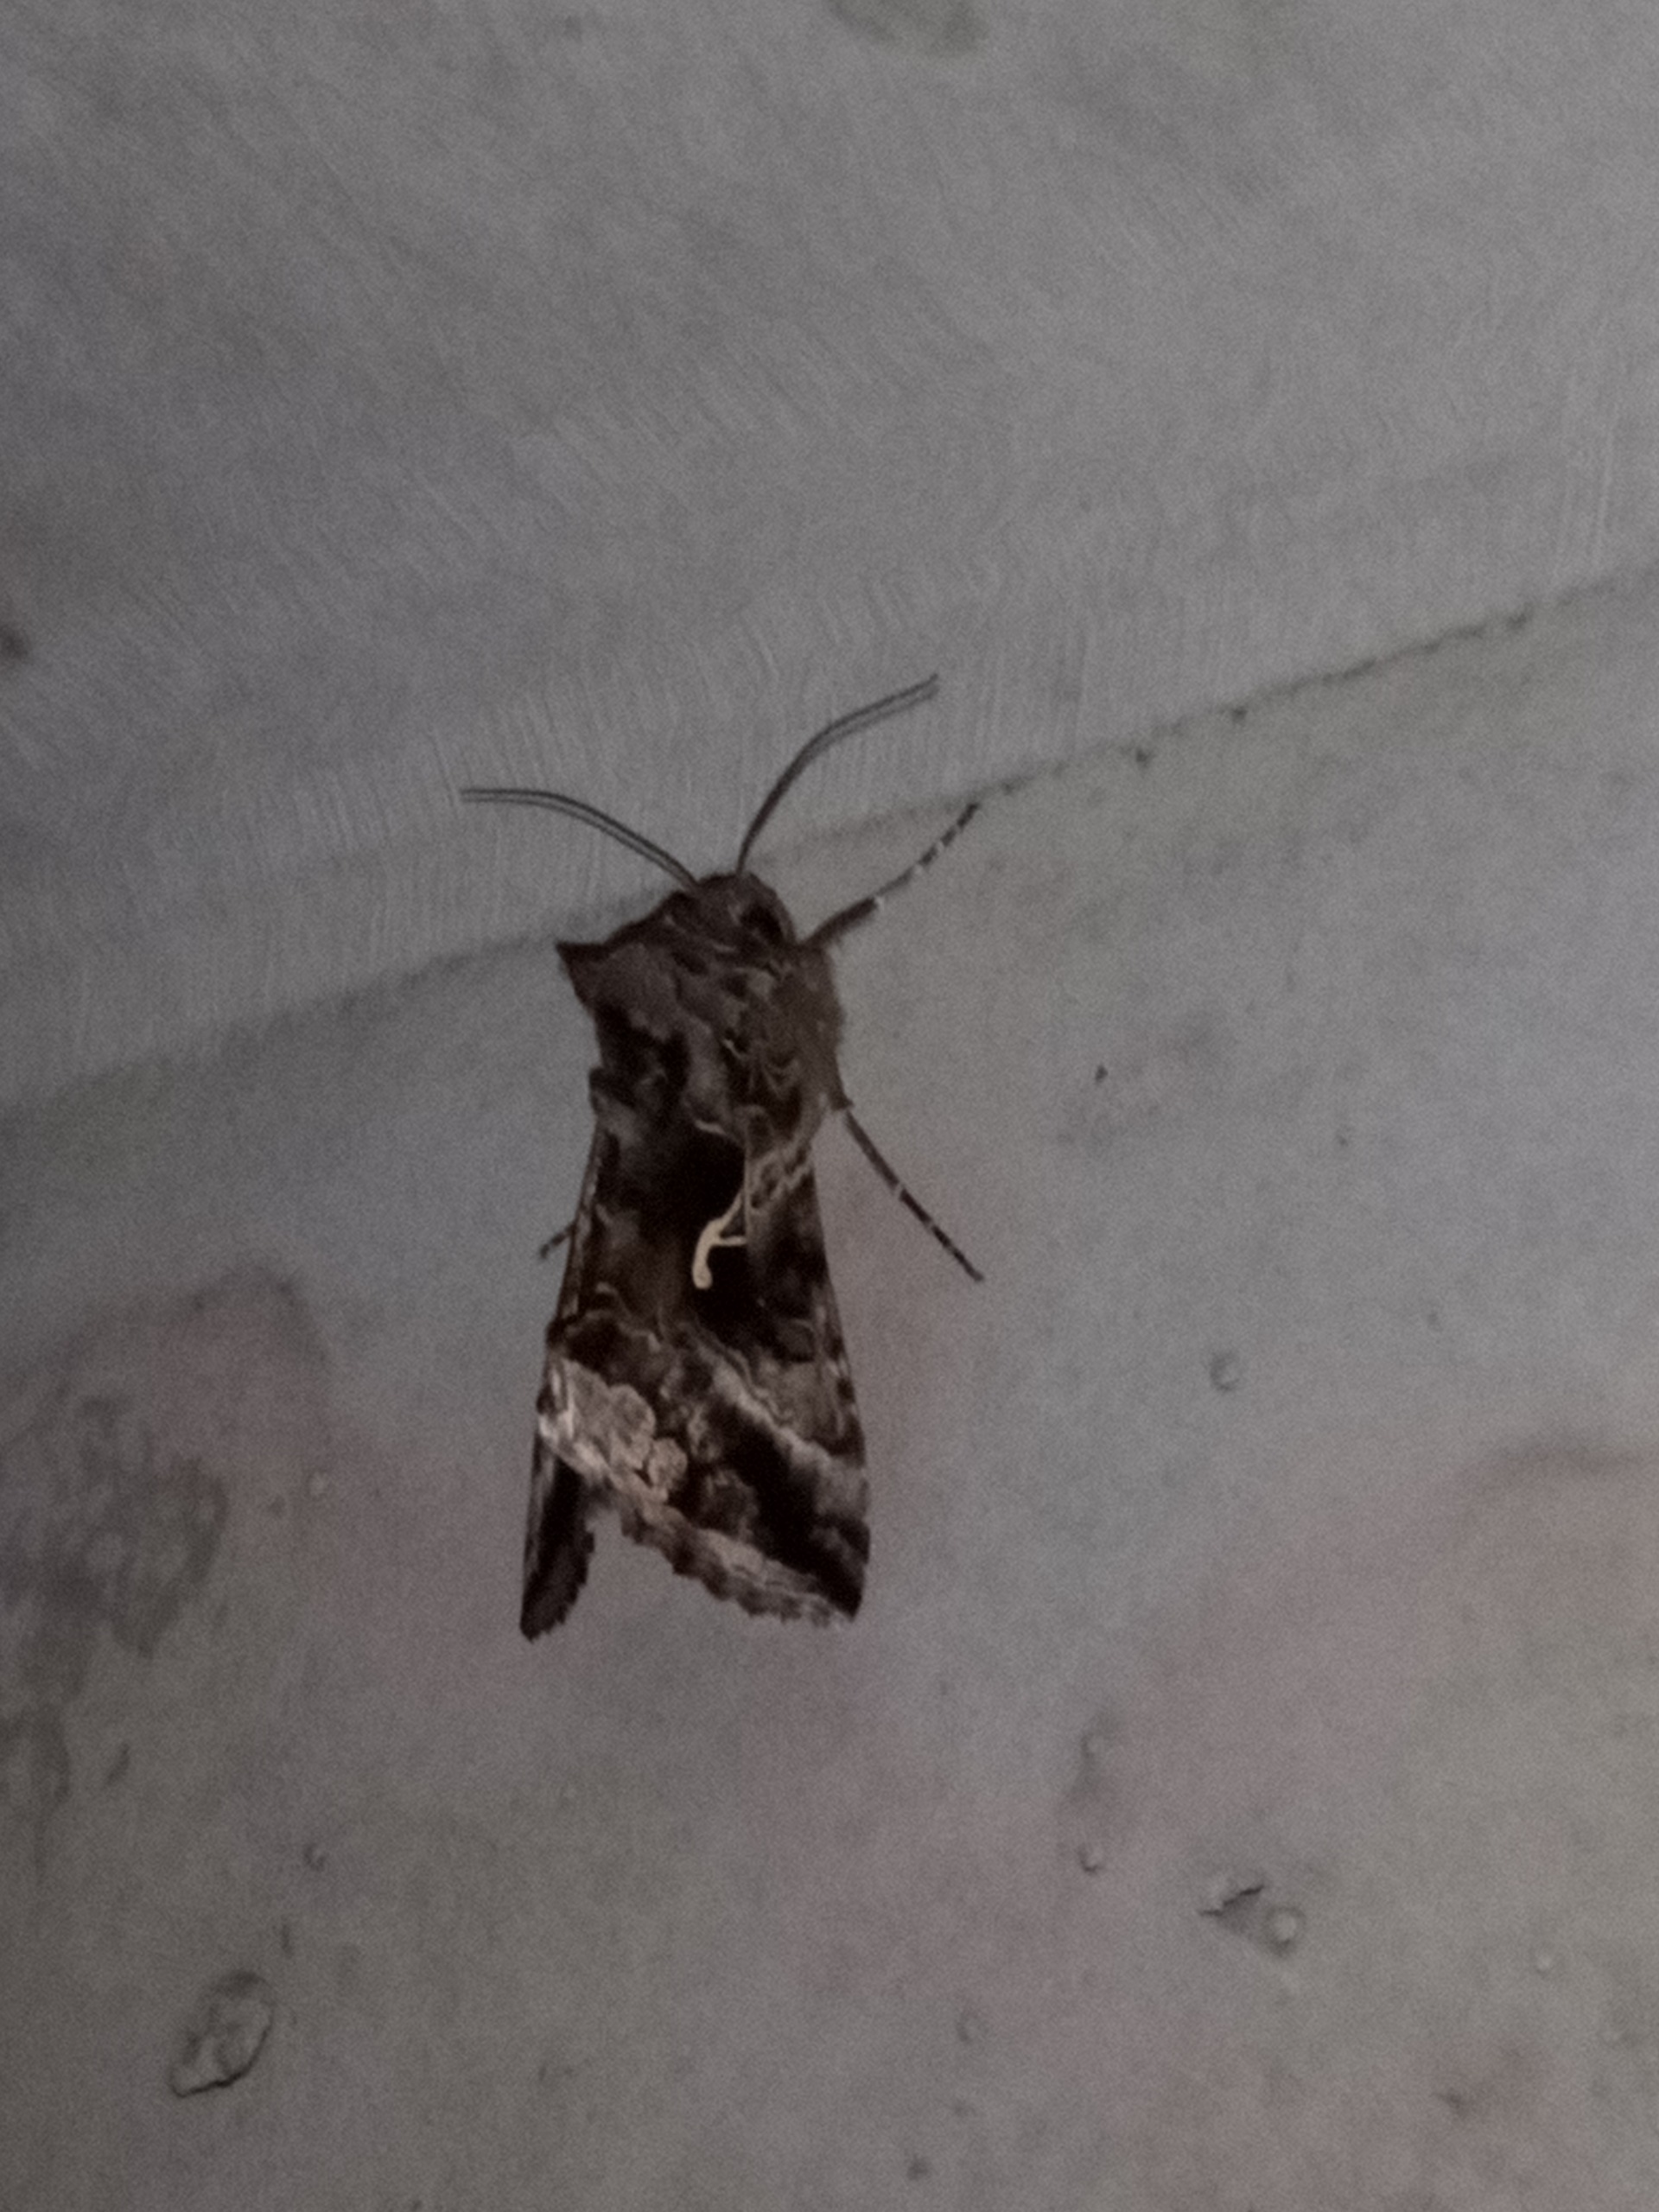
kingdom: Animalia
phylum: Arthropoda
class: Insecta
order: Lepidoptera
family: Noctuidae
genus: Autographa
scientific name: Autographa gamma
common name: Gammaugle
